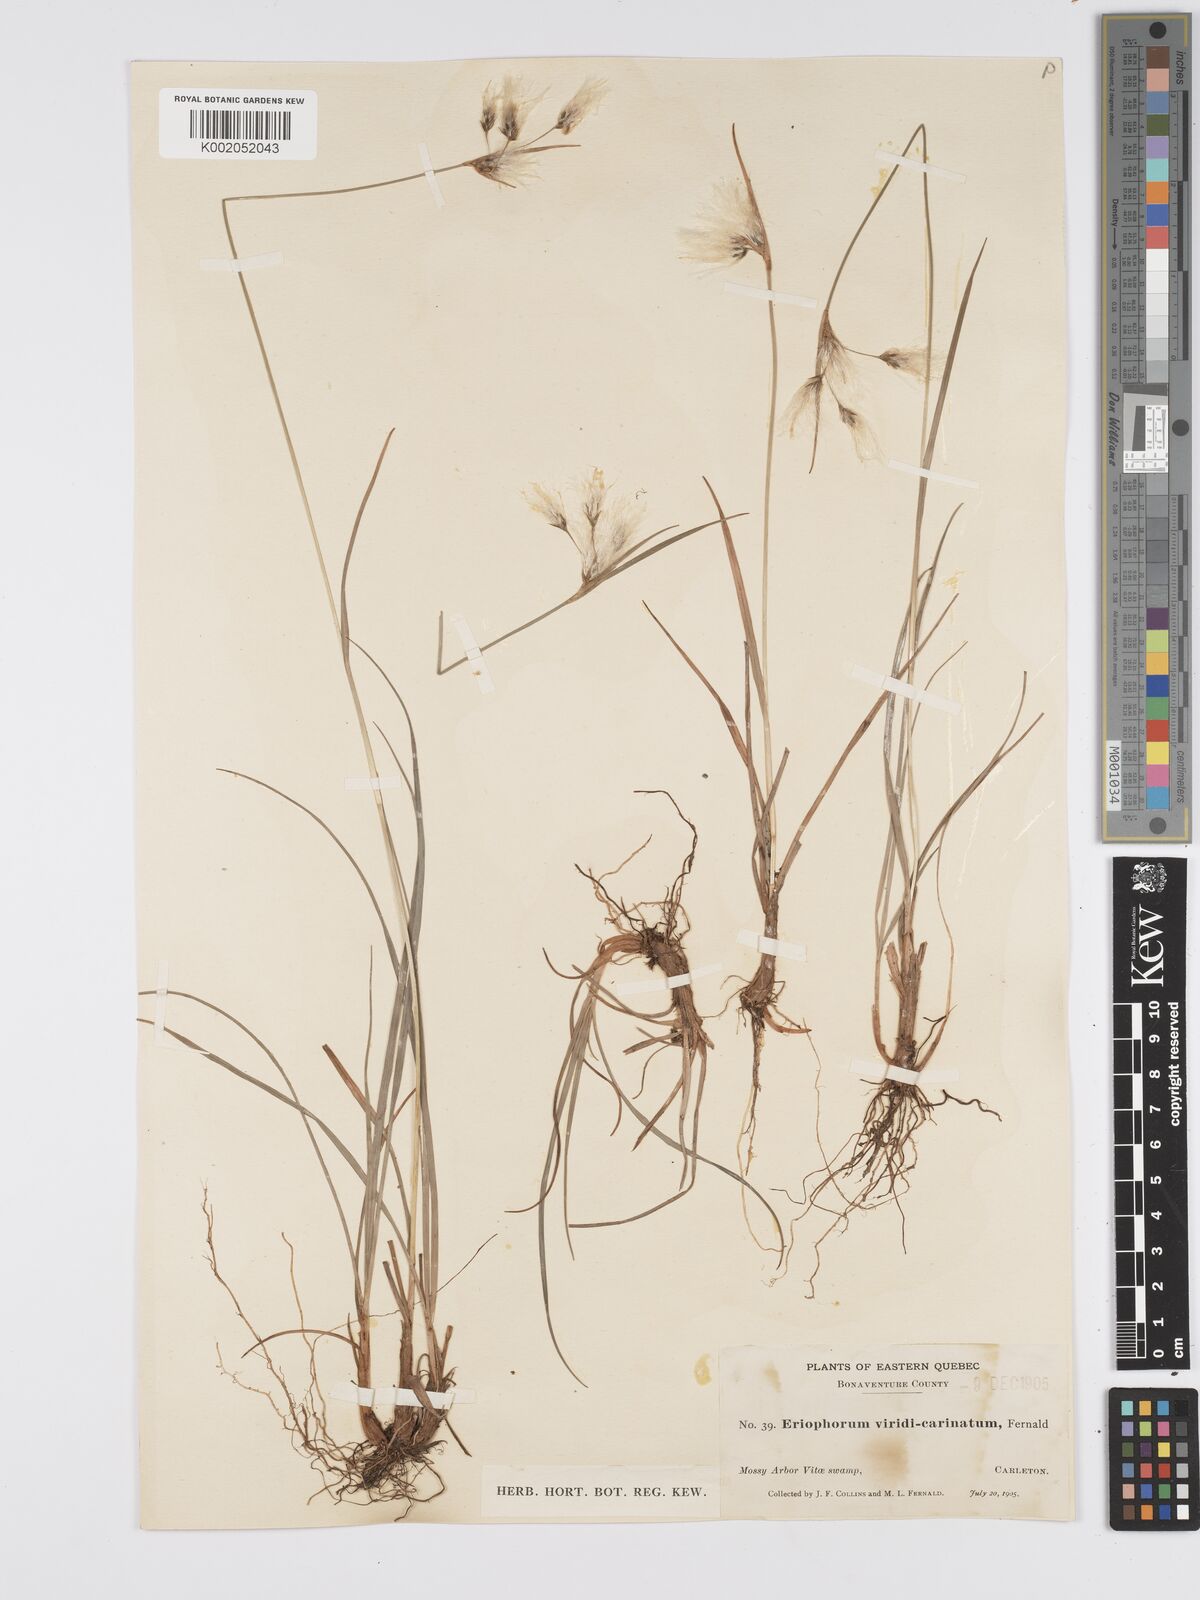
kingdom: Plantae
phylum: Tracheophyta
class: Liliopsida
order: Poales
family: Cyperaceae
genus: Eriophorum
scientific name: Eriophorum viridicarinatum
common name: Green-keeled cottongrass
